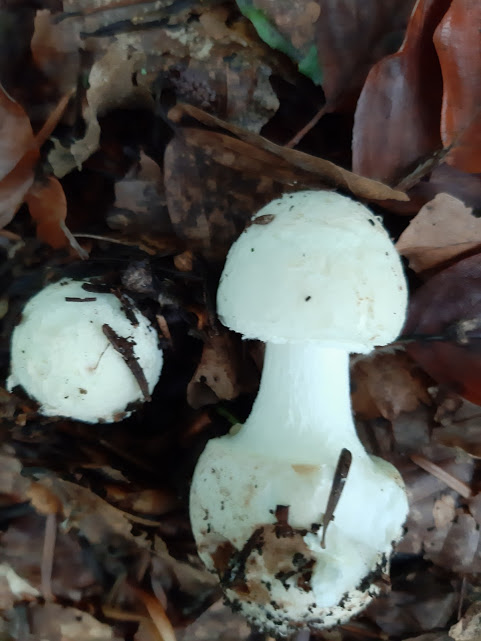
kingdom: Fungi
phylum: Basidiomycota
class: Agaricomycetes
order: Agaricales
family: Amanitaceae
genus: Amanita
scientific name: Amanita citrina
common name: False death-cap
